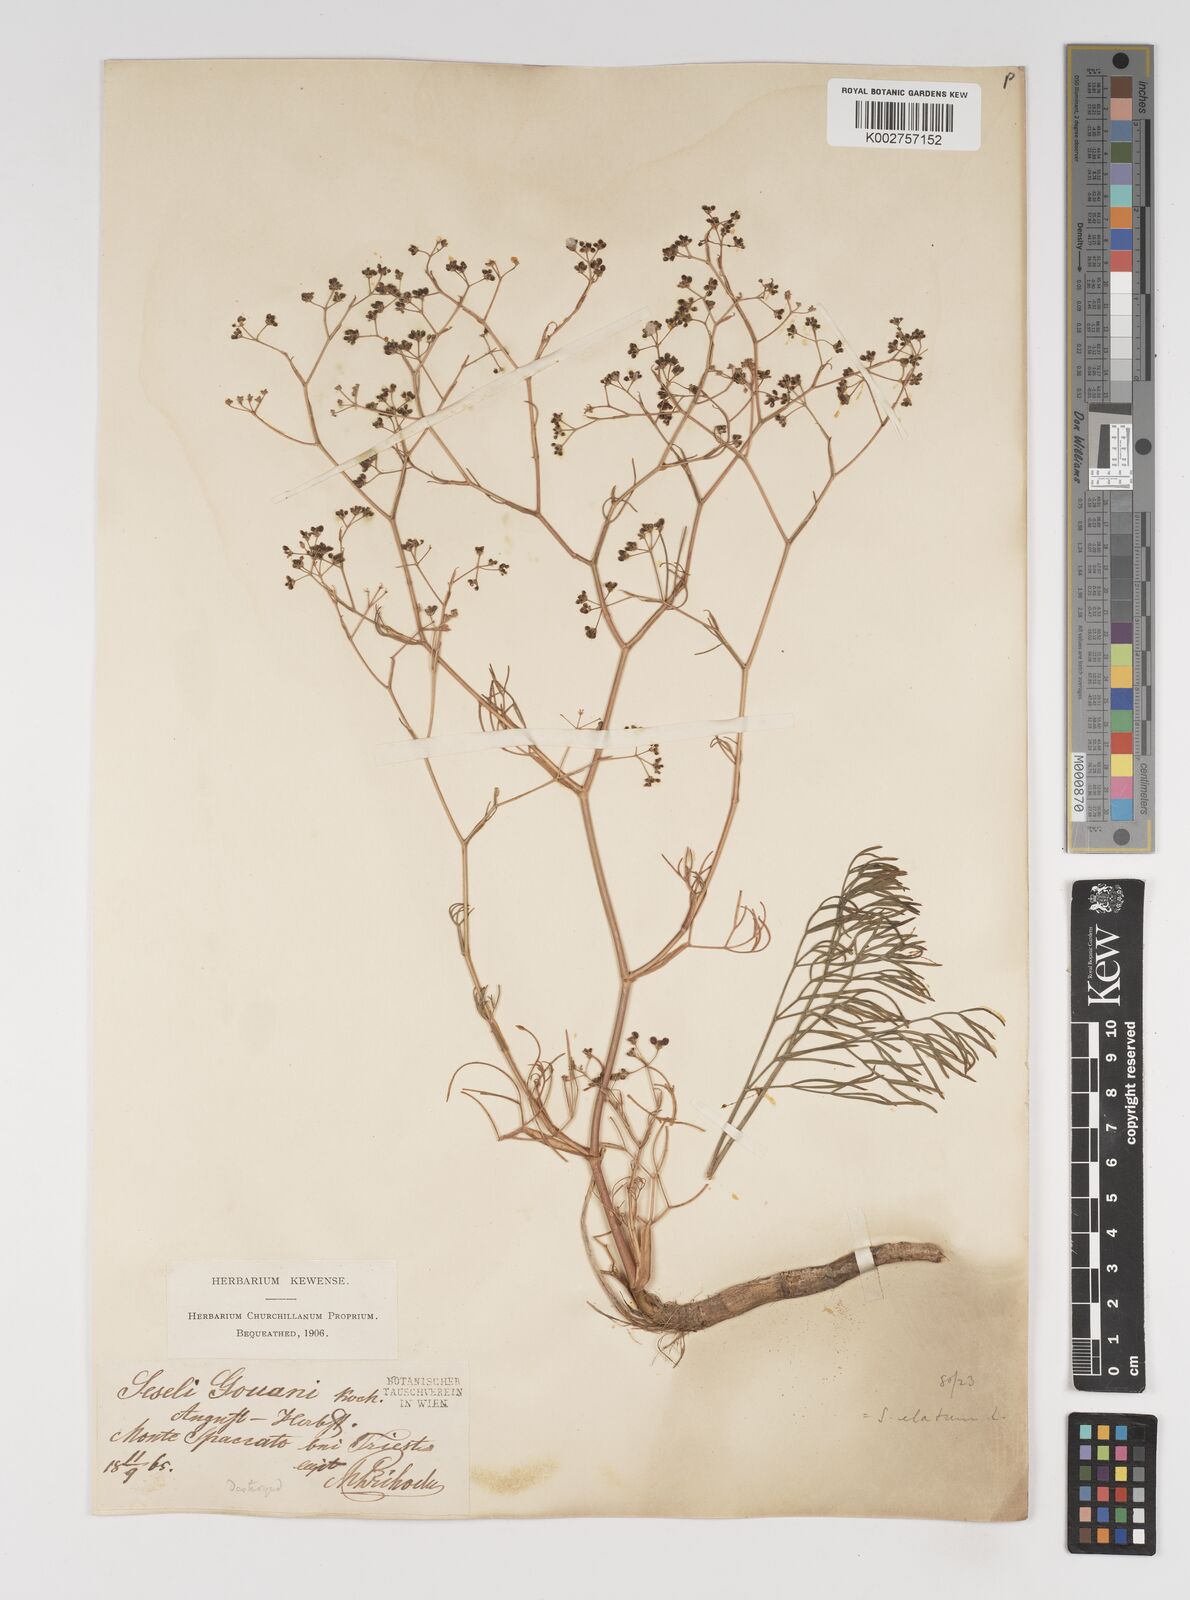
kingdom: Plantae
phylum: Tracheophyta
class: Magnoliopsida
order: Apiales
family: Apiaceae
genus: Seseli
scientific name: Seseli longifolium
